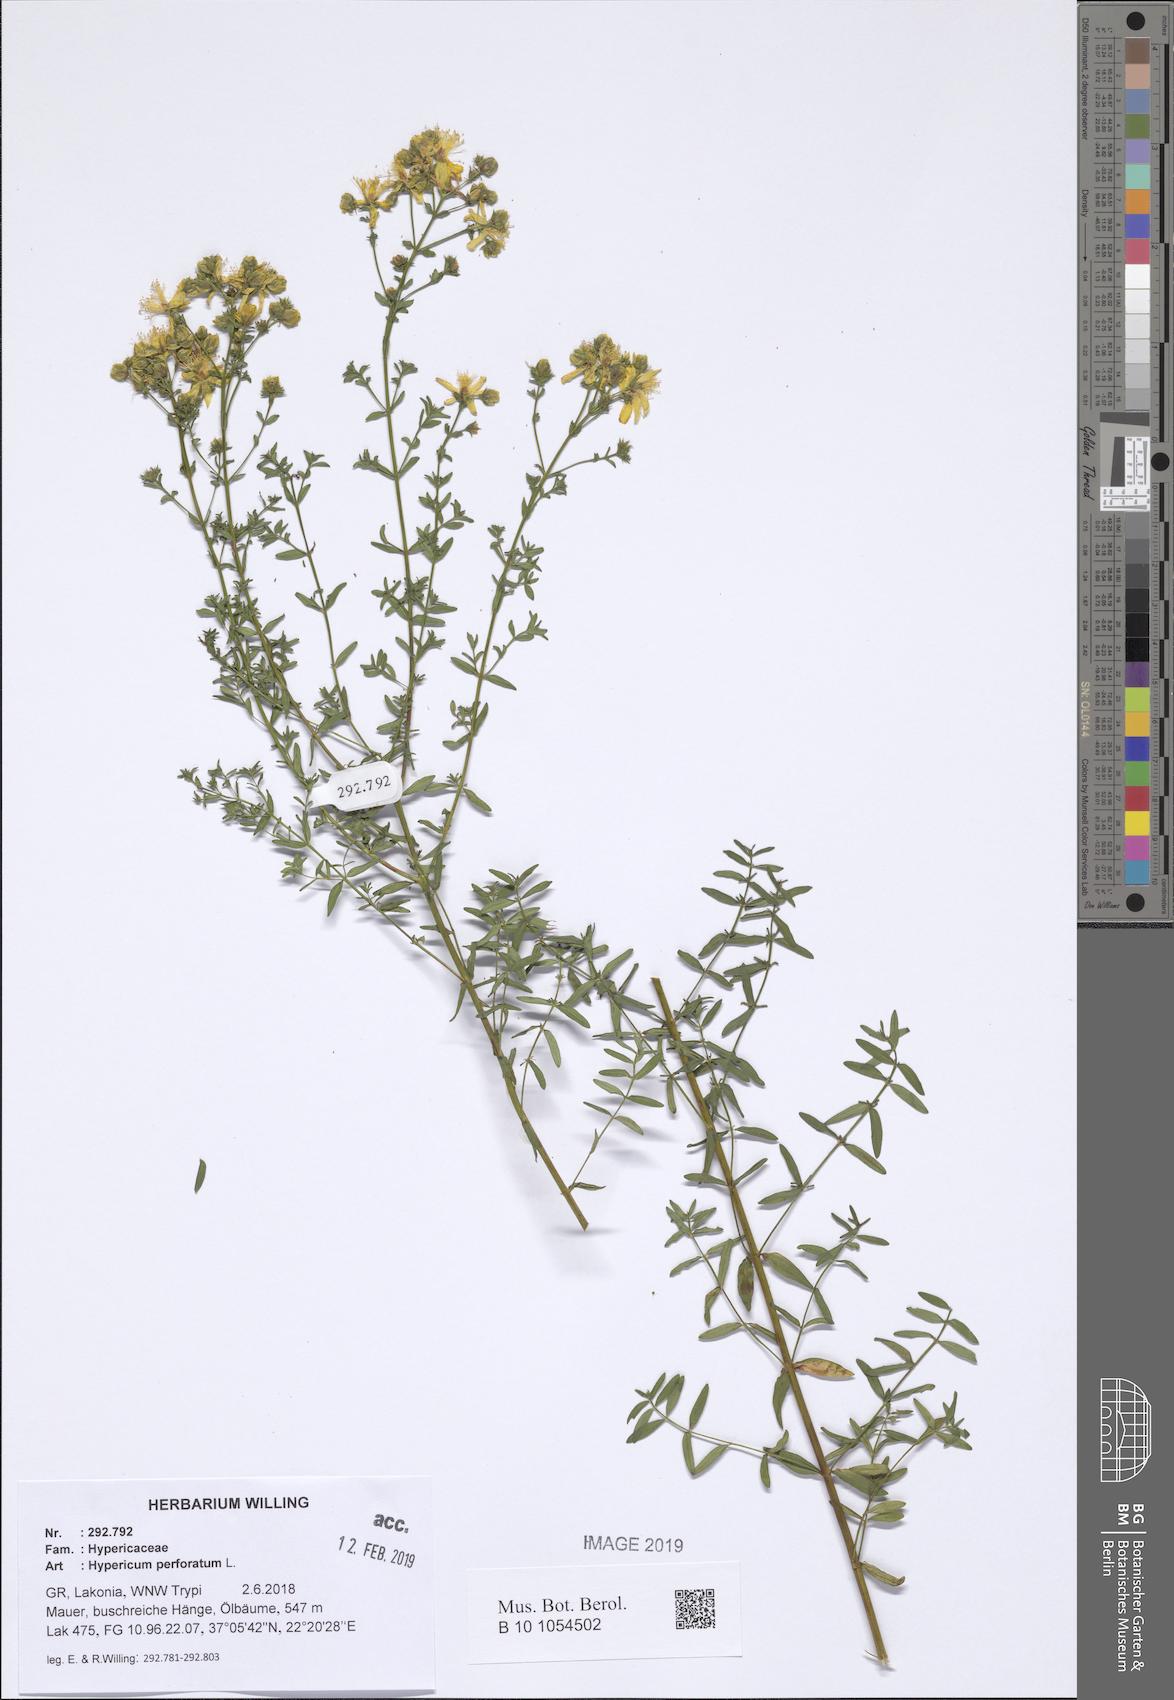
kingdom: Plantae
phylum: Tracheophyta
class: Magnoliopsida
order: Malpighiales
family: Hypericaceae
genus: Hypericum
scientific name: Hypericum perforatum
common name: Common st. johnswort
